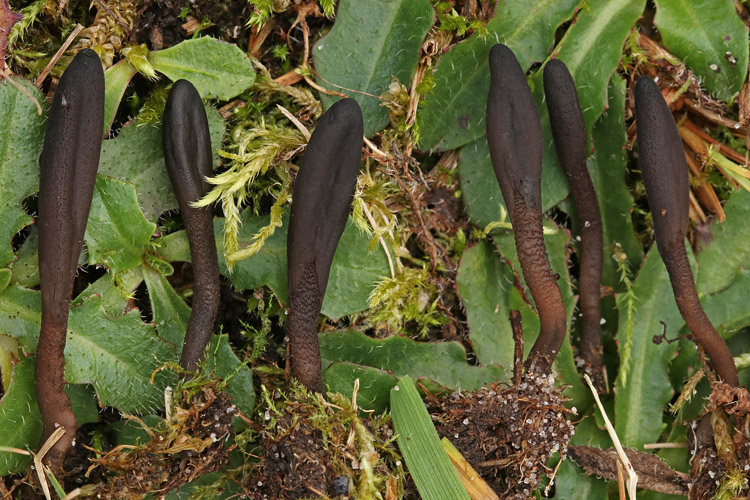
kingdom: Fungi
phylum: Ascomycota
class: Geoglossomycetes
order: Geoglossales
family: Geoglossaceae
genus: Hemileucoglossum
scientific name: Hemileucoglossum elongatum
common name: småsporet jordtunge
